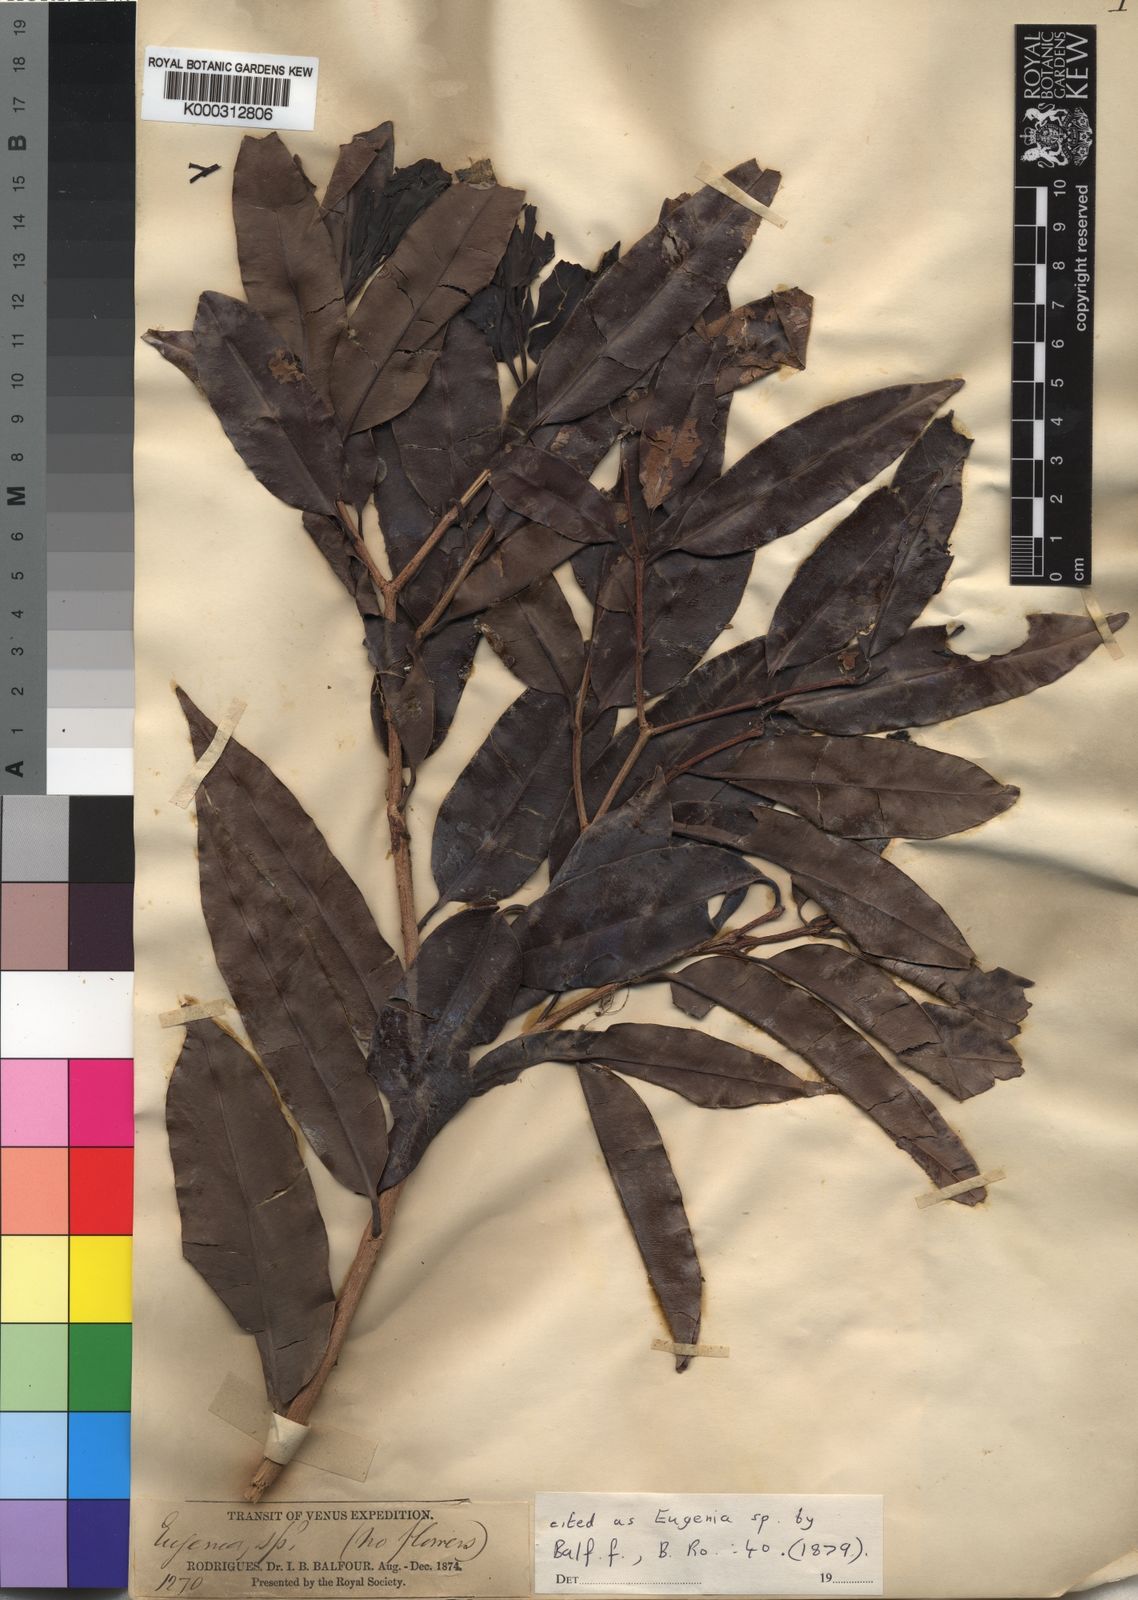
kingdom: Plantae
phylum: Tracheophyta
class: Magnoliopsida
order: Myrtales
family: Myrtaceae
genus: Syzygium
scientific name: Syzygium balfourii
